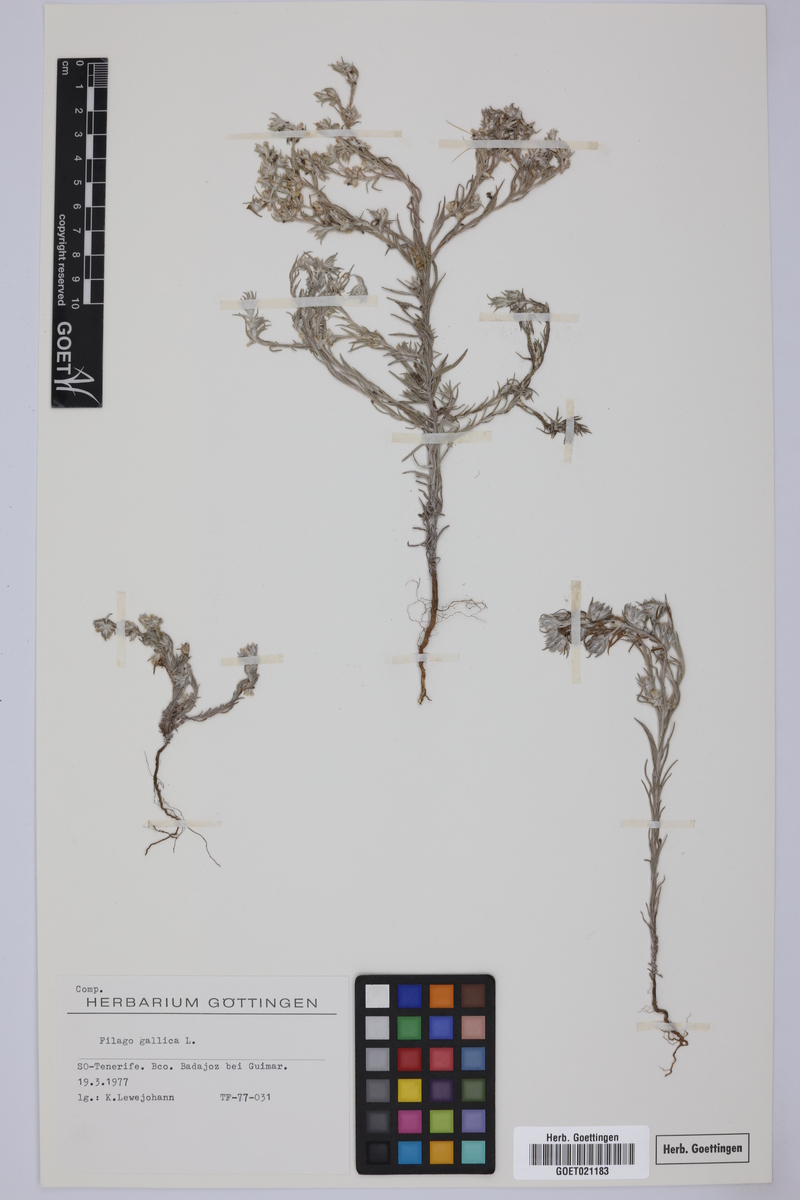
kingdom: Plantae
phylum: Tracheophyta
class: Magnoliopsida
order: Asterales
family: Asteraceae
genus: Logfia
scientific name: Logfia gallica
